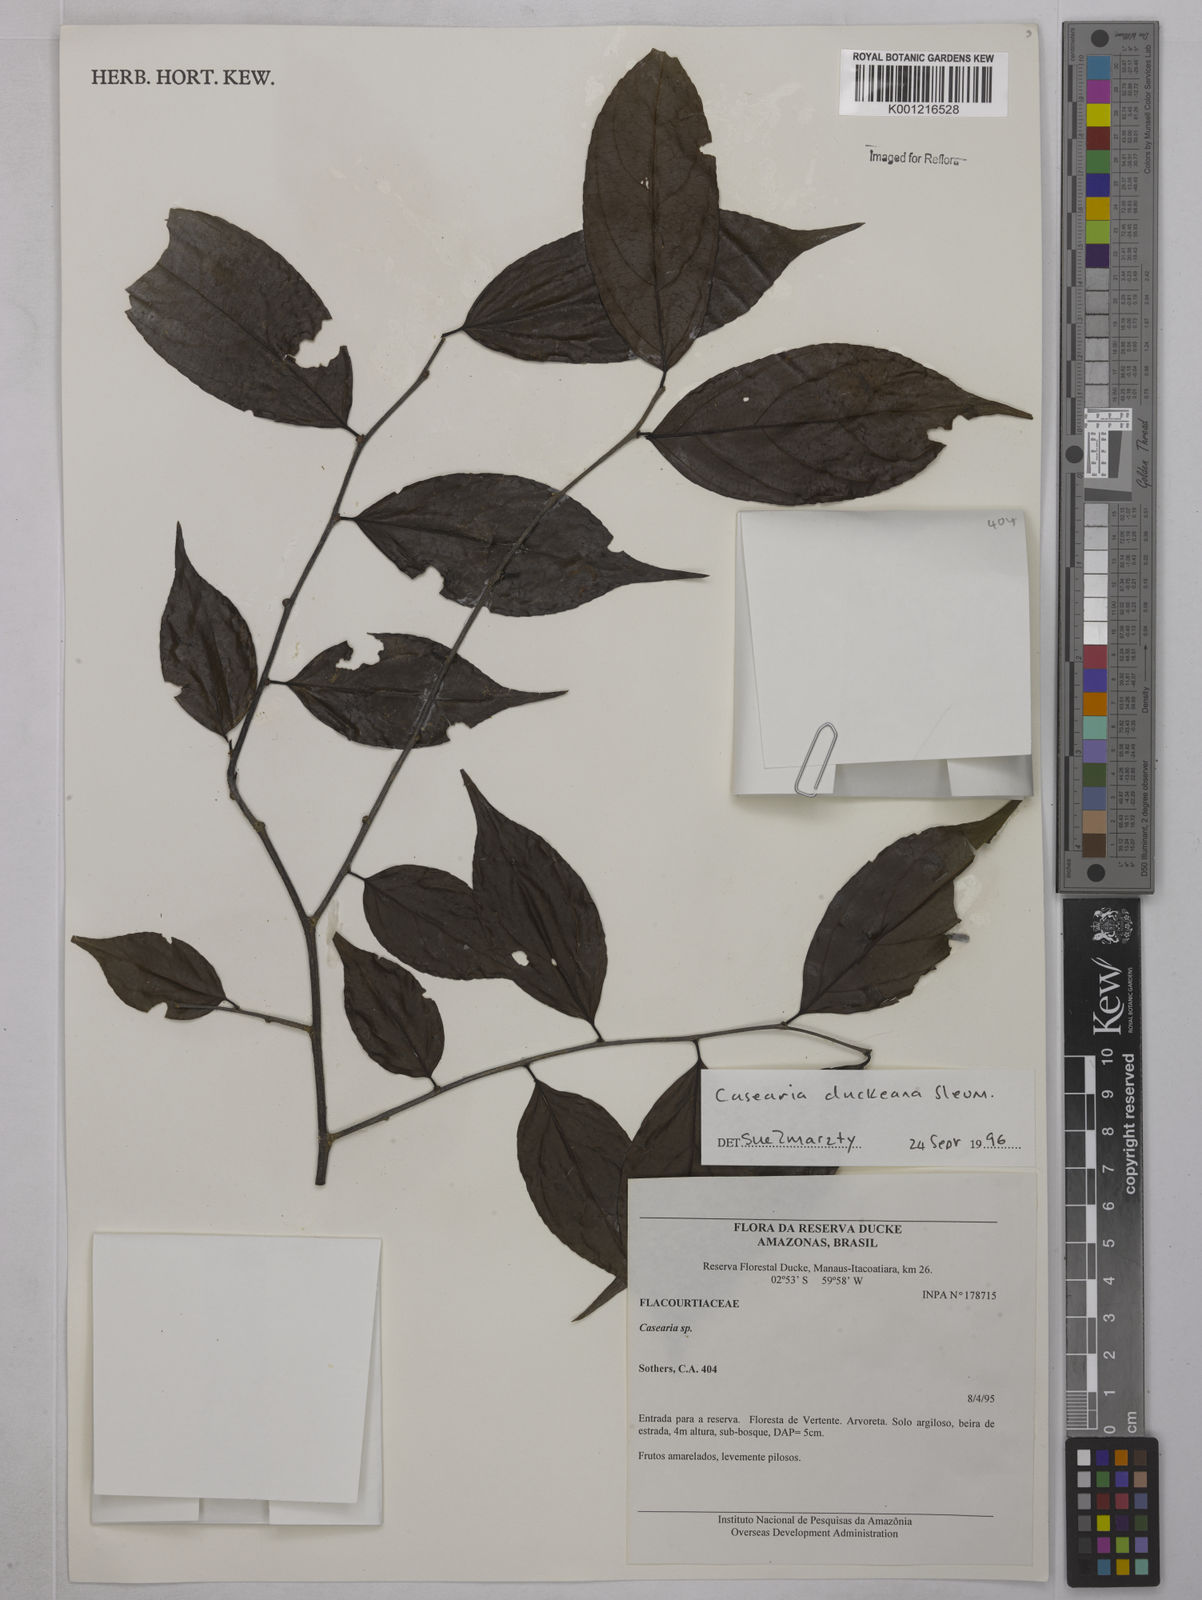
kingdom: Plantae
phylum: Tracheophyta
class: Magnoliopsida
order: Malpighiales
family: Salicaceae
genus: Casearia
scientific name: Casearia duckeana
